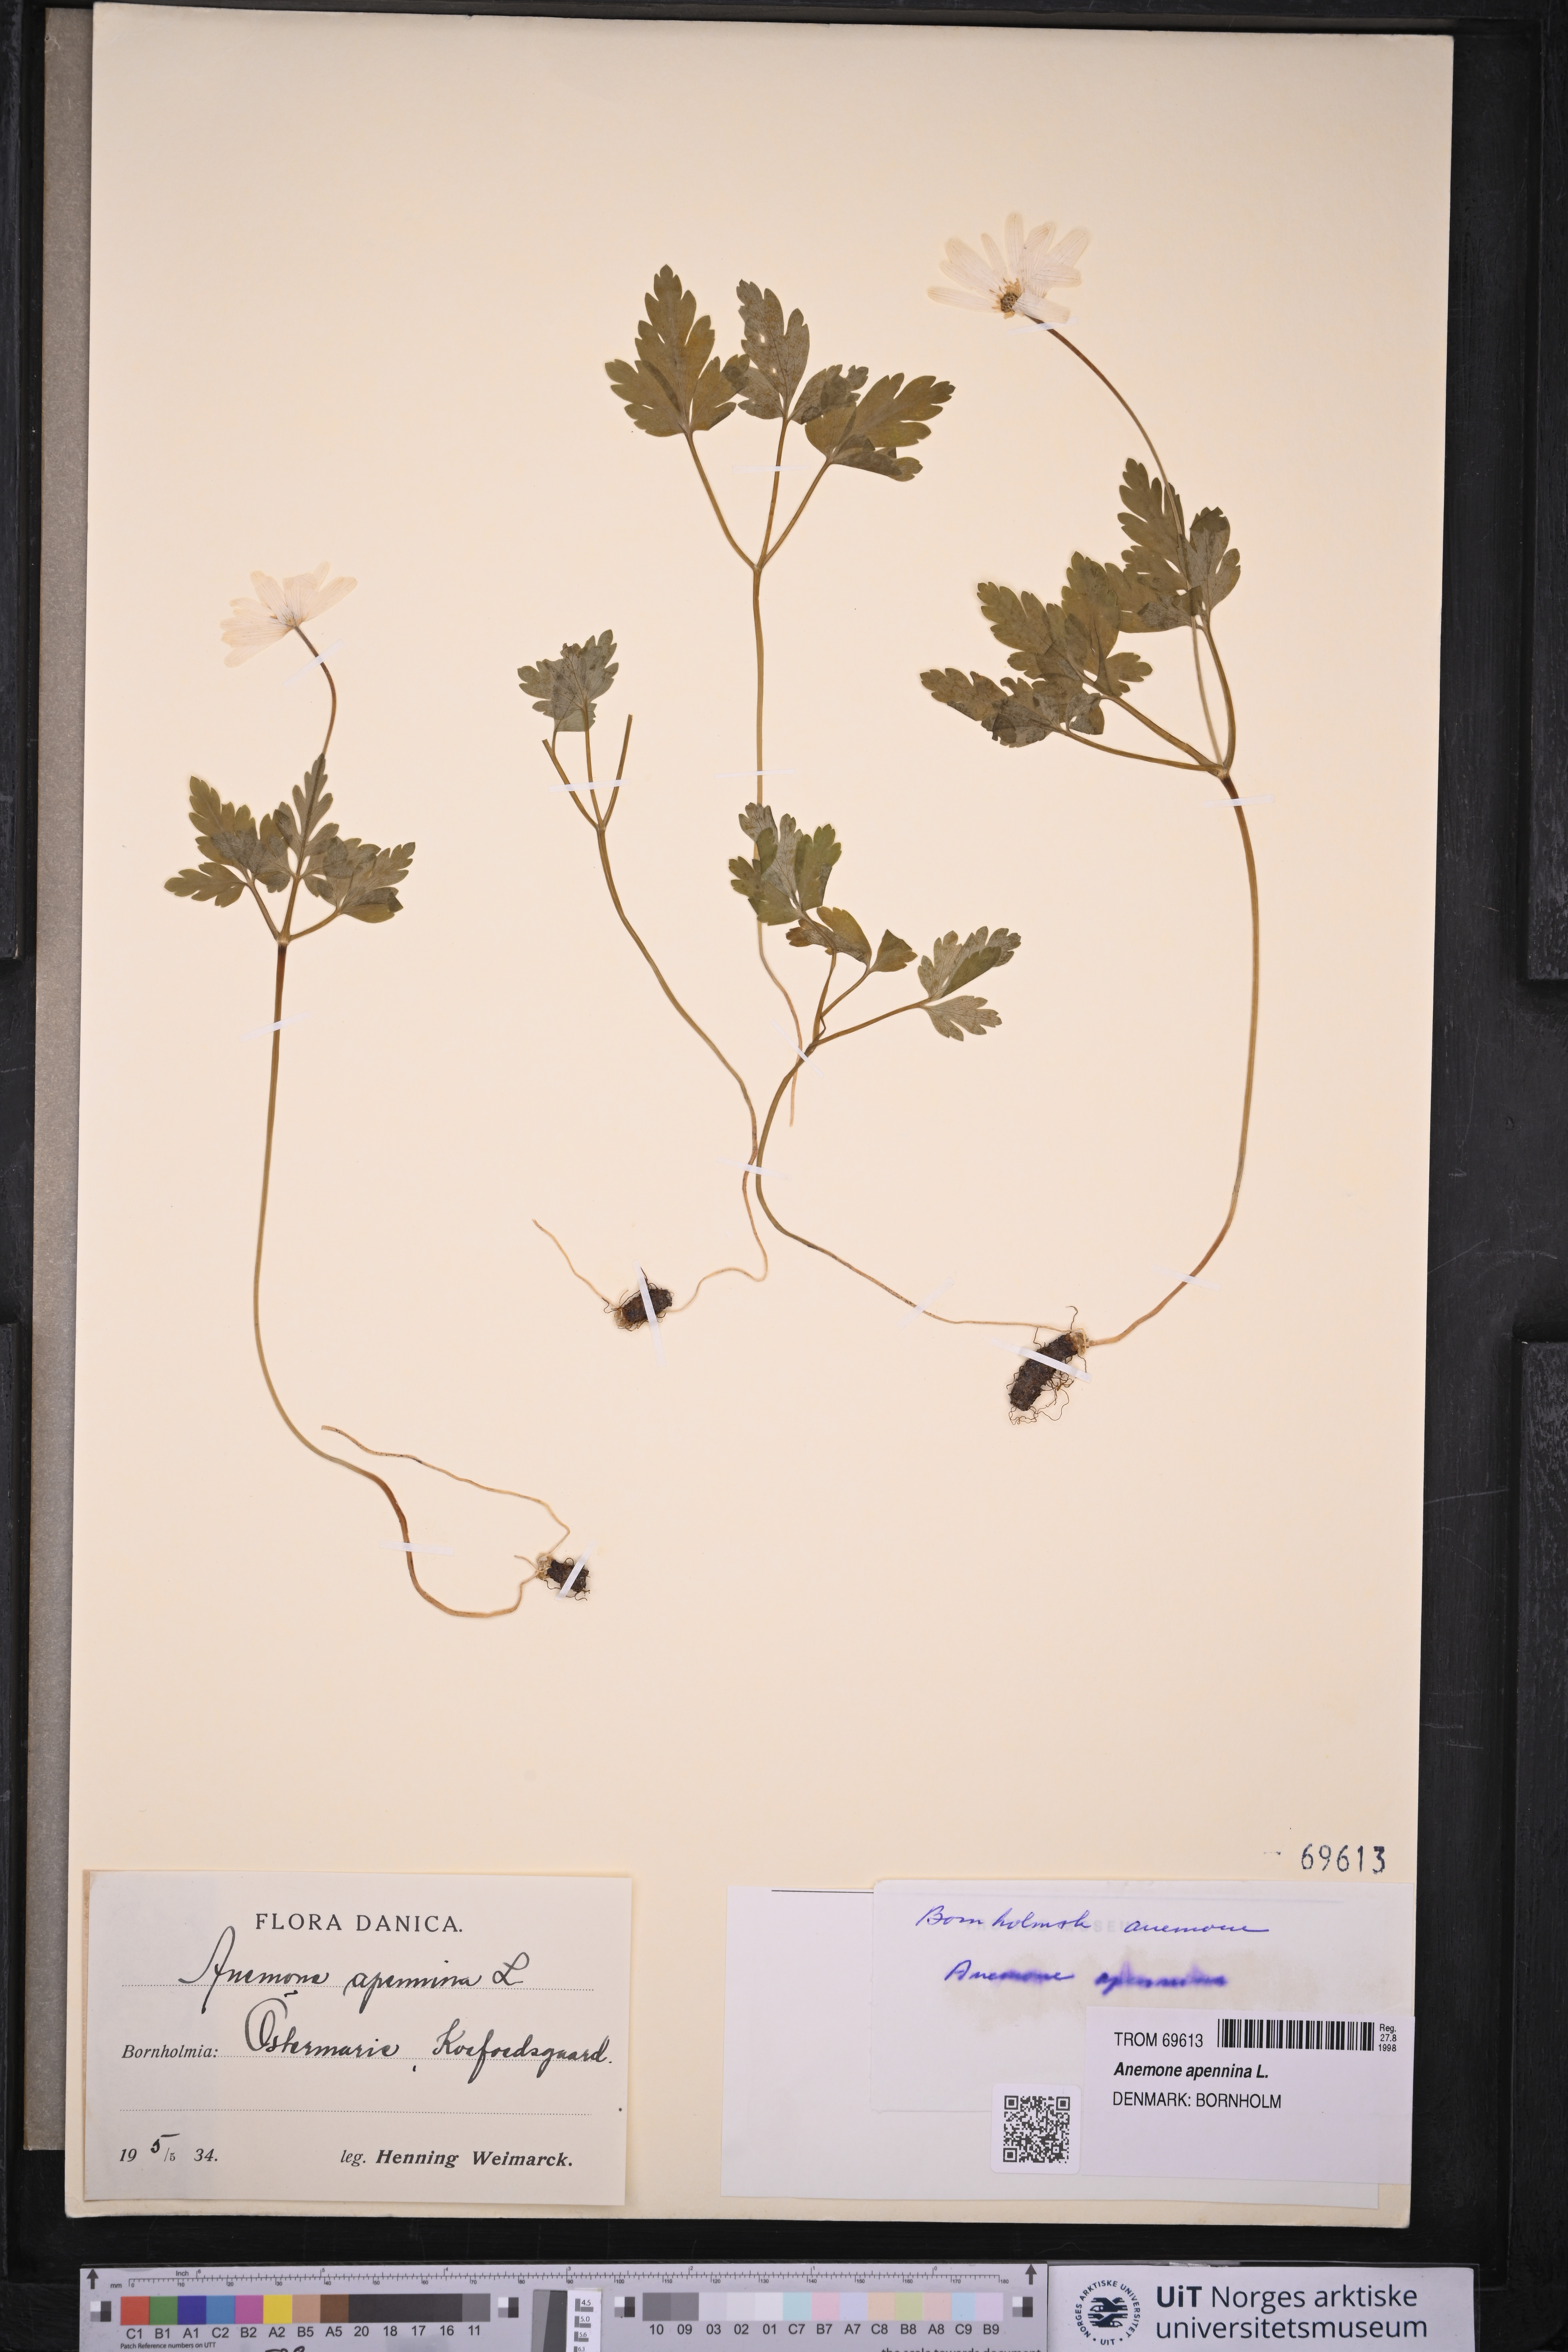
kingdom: Plantae
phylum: Tracheophyta
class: Magnoliopsida
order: Ranunculales
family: Ranunculaceae
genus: Anemone
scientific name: Anemone apennina
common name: Blue anemone
